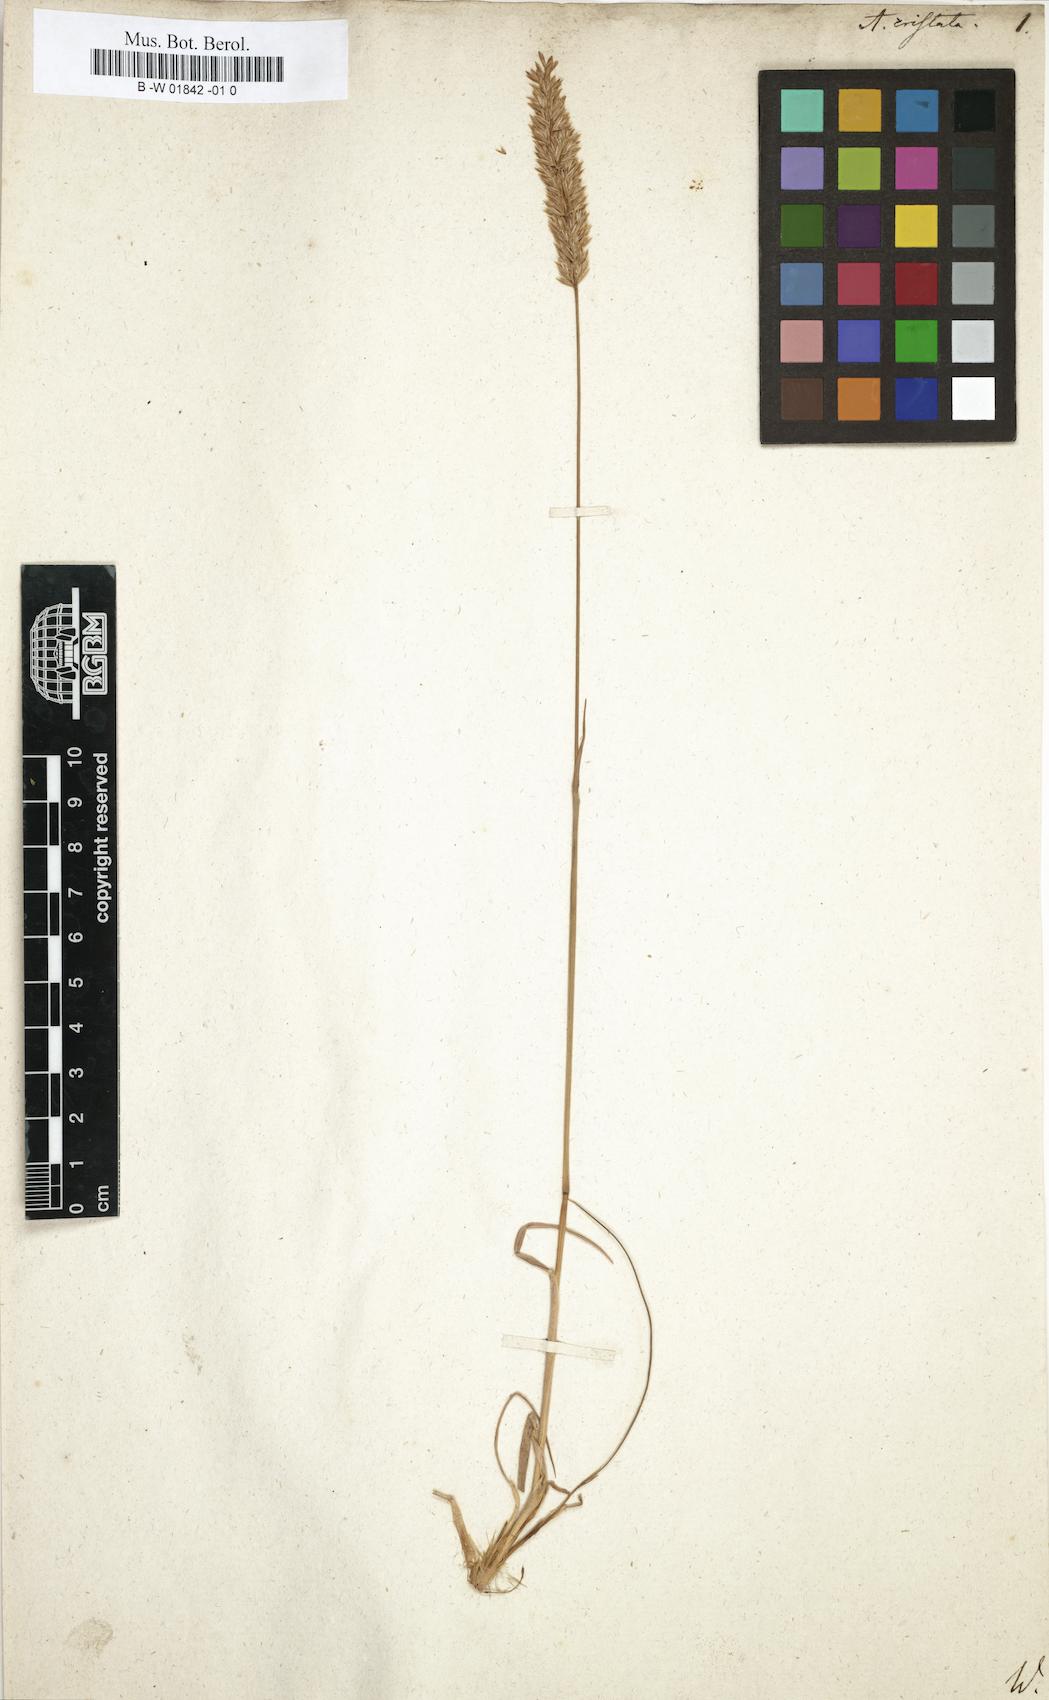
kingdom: Plantae
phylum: Tracheophyta
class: Liliopsida
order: Poales
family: Poaceae
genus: Koeleria
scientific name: Koeleria macrantha
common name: Crested hair-grass
